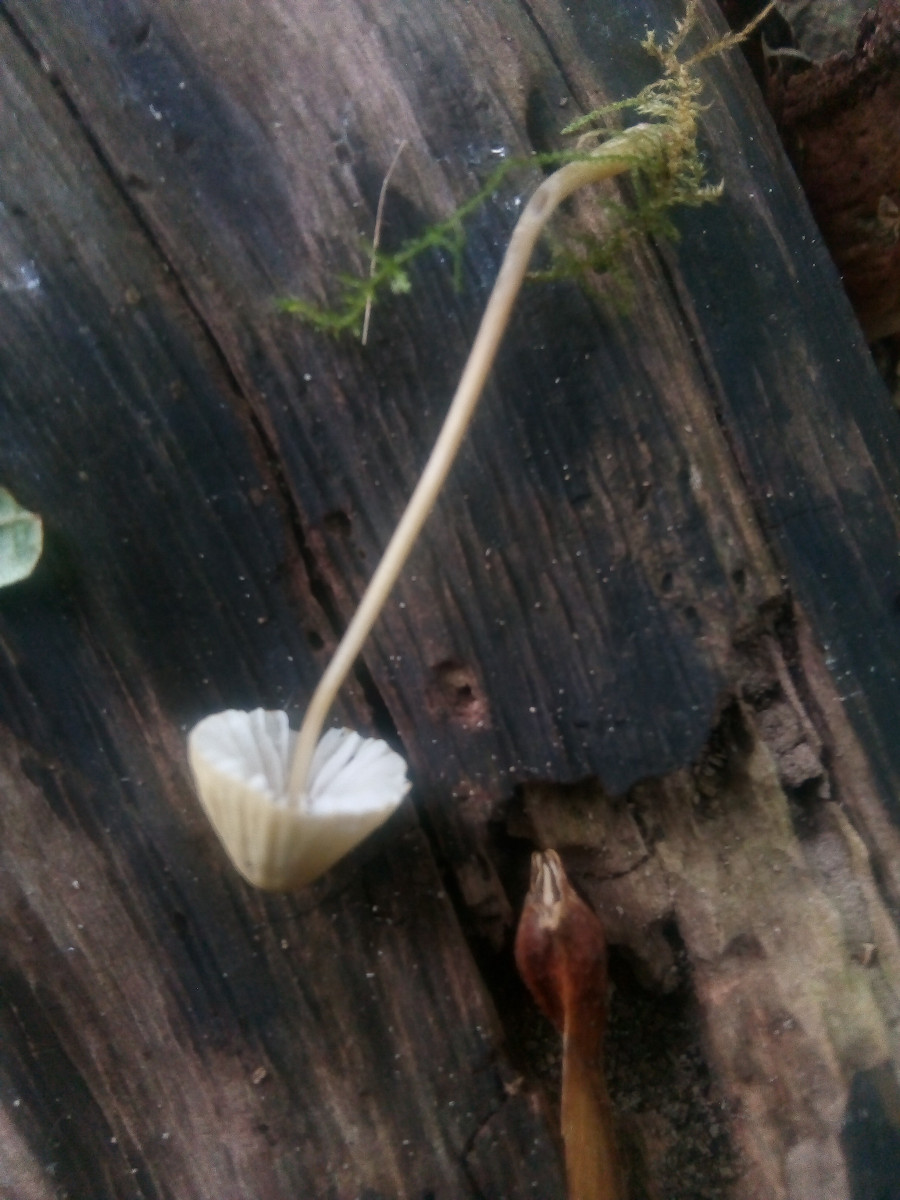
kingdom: Fungi
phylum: Basidiomycota
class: Agaricomycetes
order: Agaricales
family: Mycenaceae
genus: Mycena
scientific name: Mycena citrinomarginata
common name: gulægget huesvamp
